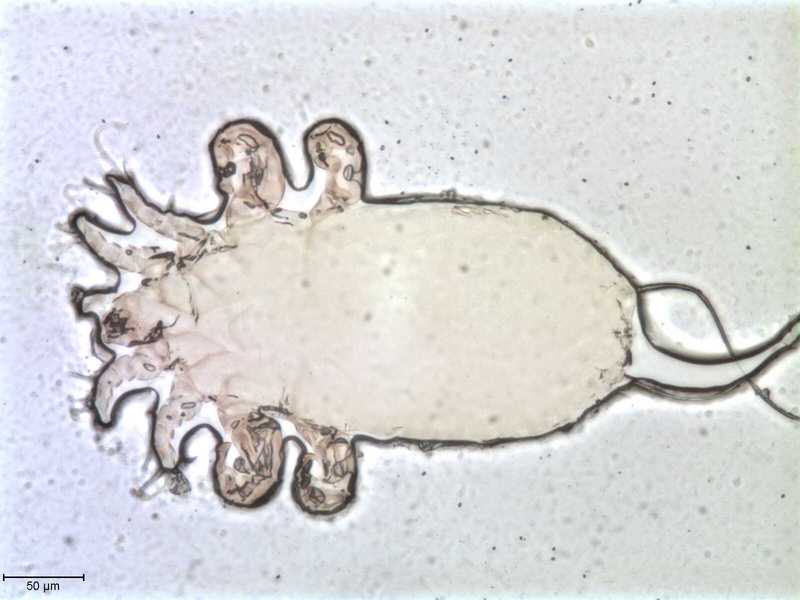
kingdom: Animalia
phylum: Arthropoda
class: Arachnida
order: Sarcoptiformes
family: Myocoptidae
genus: Gliricoptes
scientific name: Gliricoptes eliomys
